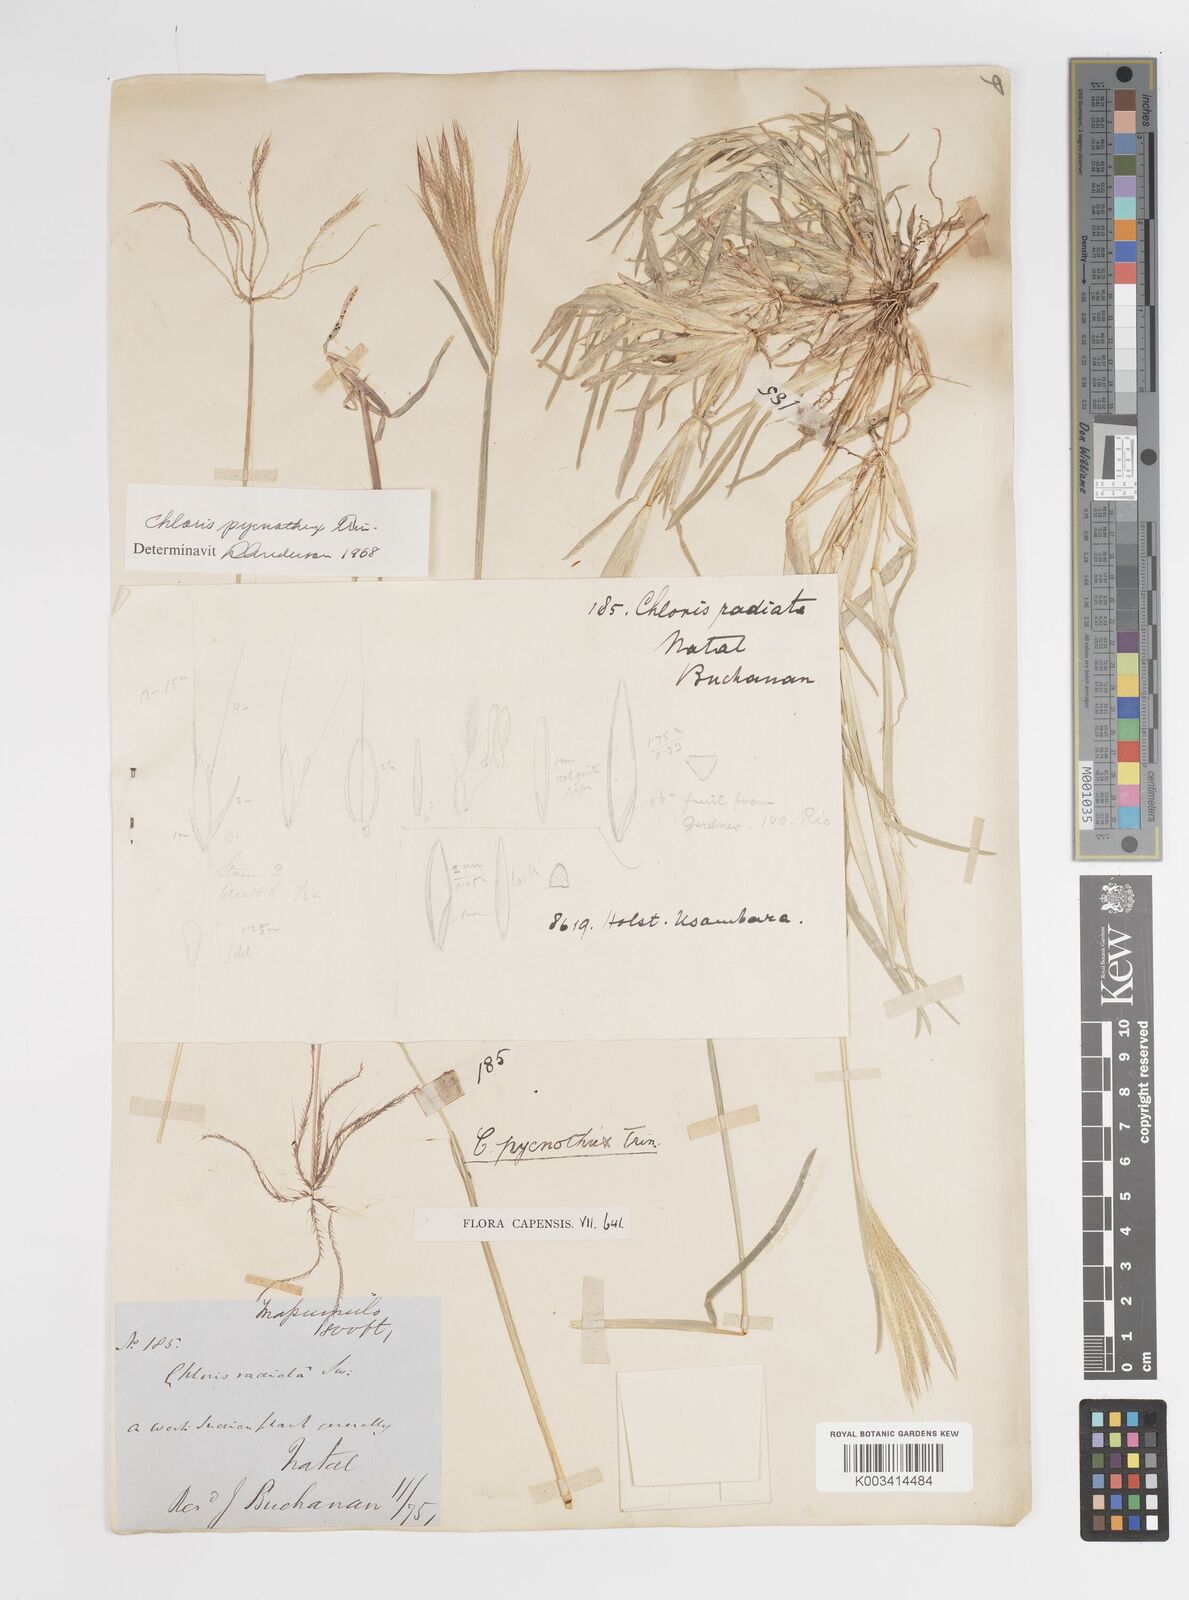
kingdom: Plantae
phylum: Tracheophyta
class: Liliopsida
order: Poales
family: Poaceae
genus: Chloris
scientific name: Chloris pycnothrix
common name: Spiderweb chloris
